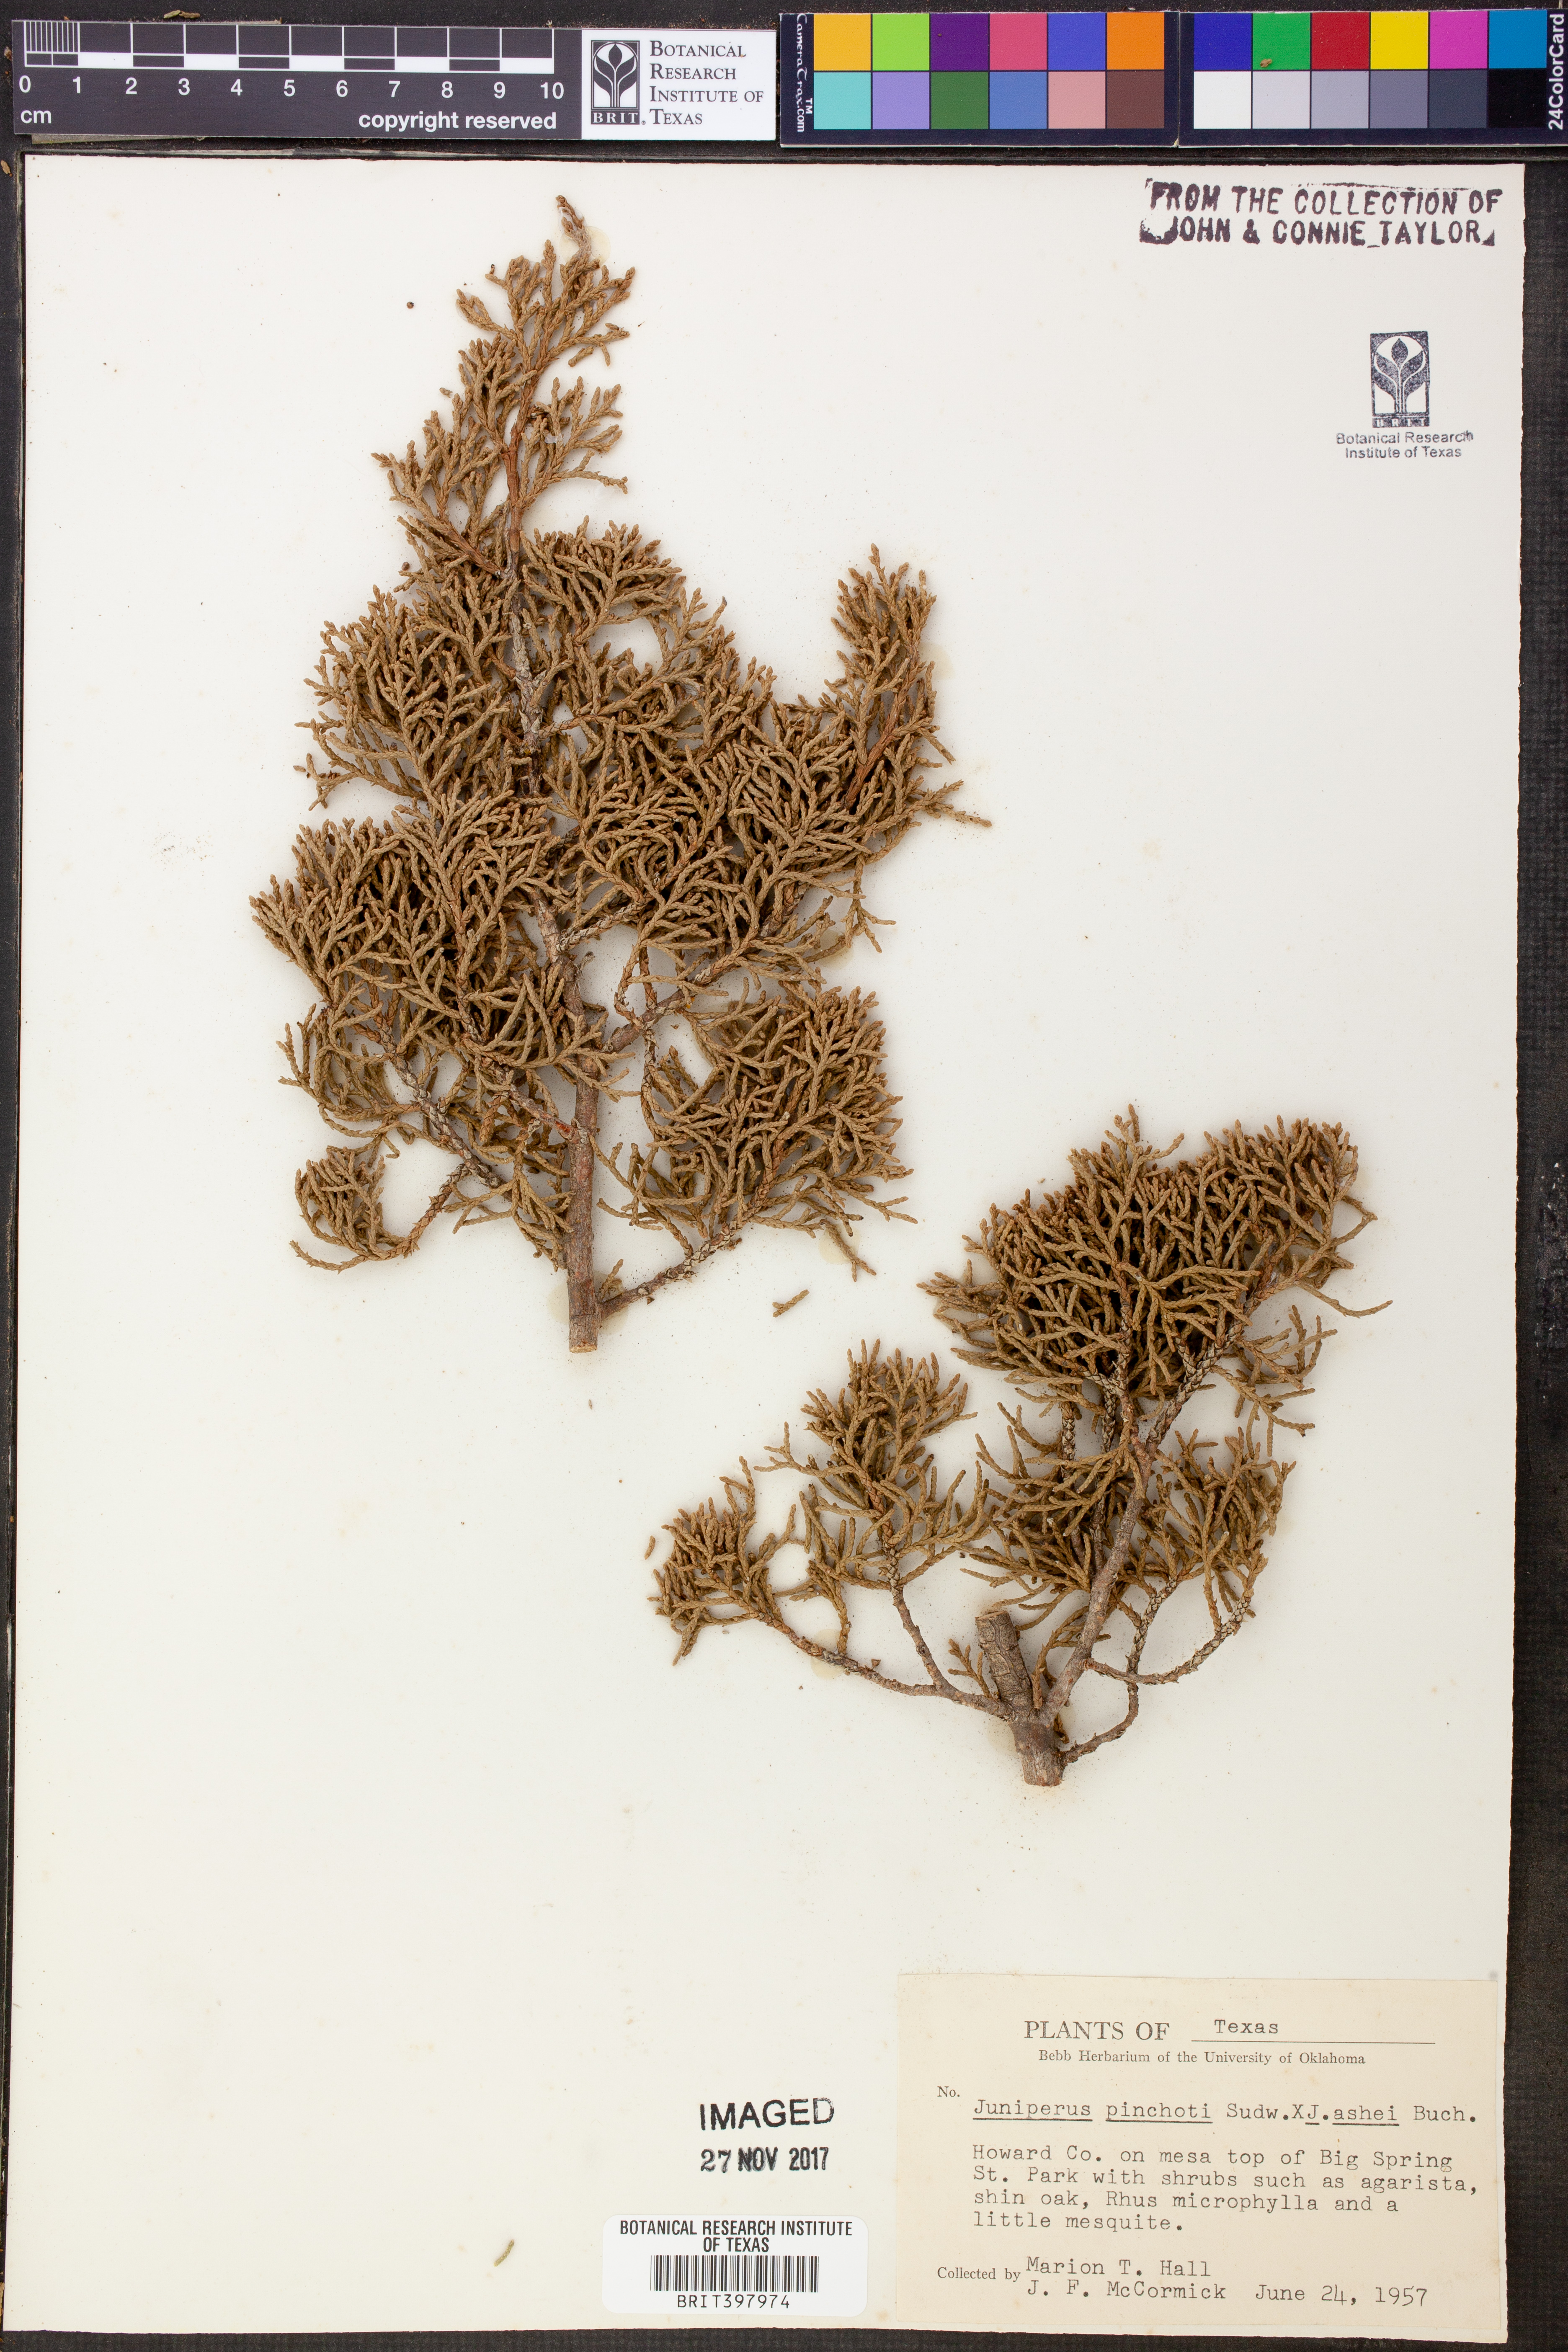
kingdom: Plantae
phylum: Tracheophyta
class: Pinopsida
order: Pinales
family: Cupressaceae
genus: Juniperus
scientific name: Juniperus pinchotii
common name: Pinchot juniper
